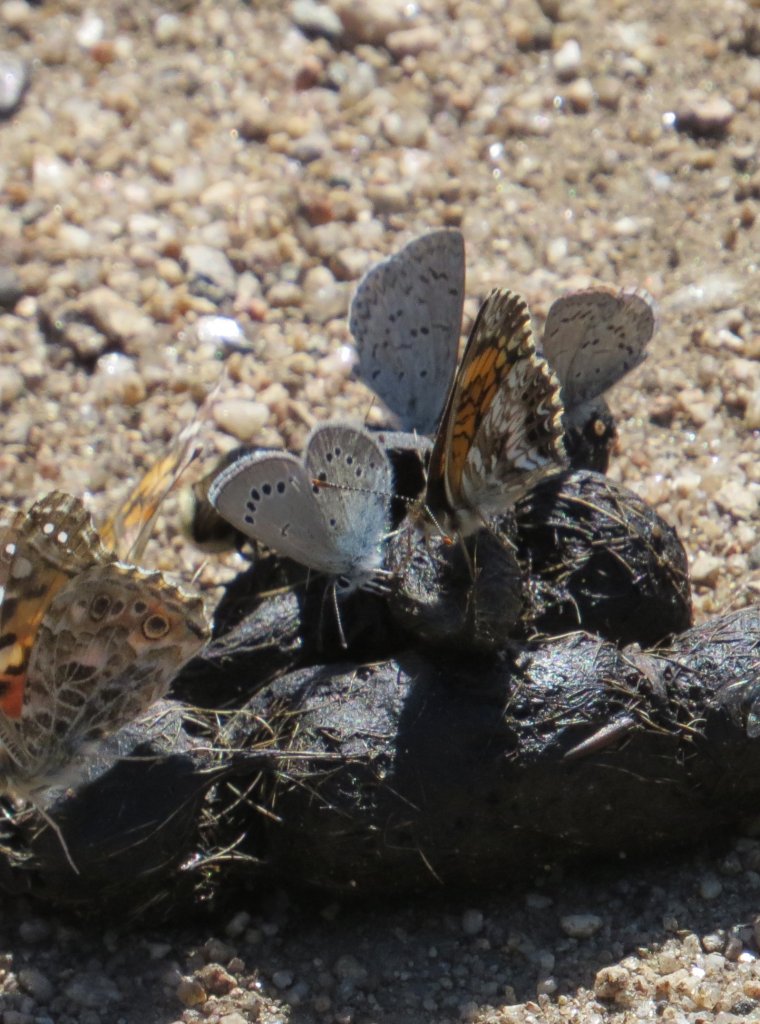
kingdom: Animalia
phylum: Arthropoda
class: Insecta
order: Lepidoptera
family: Lycaenidae
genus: Glaucopsyche
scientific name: Glaucopsyche lygdamus
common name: Silvery Blue
